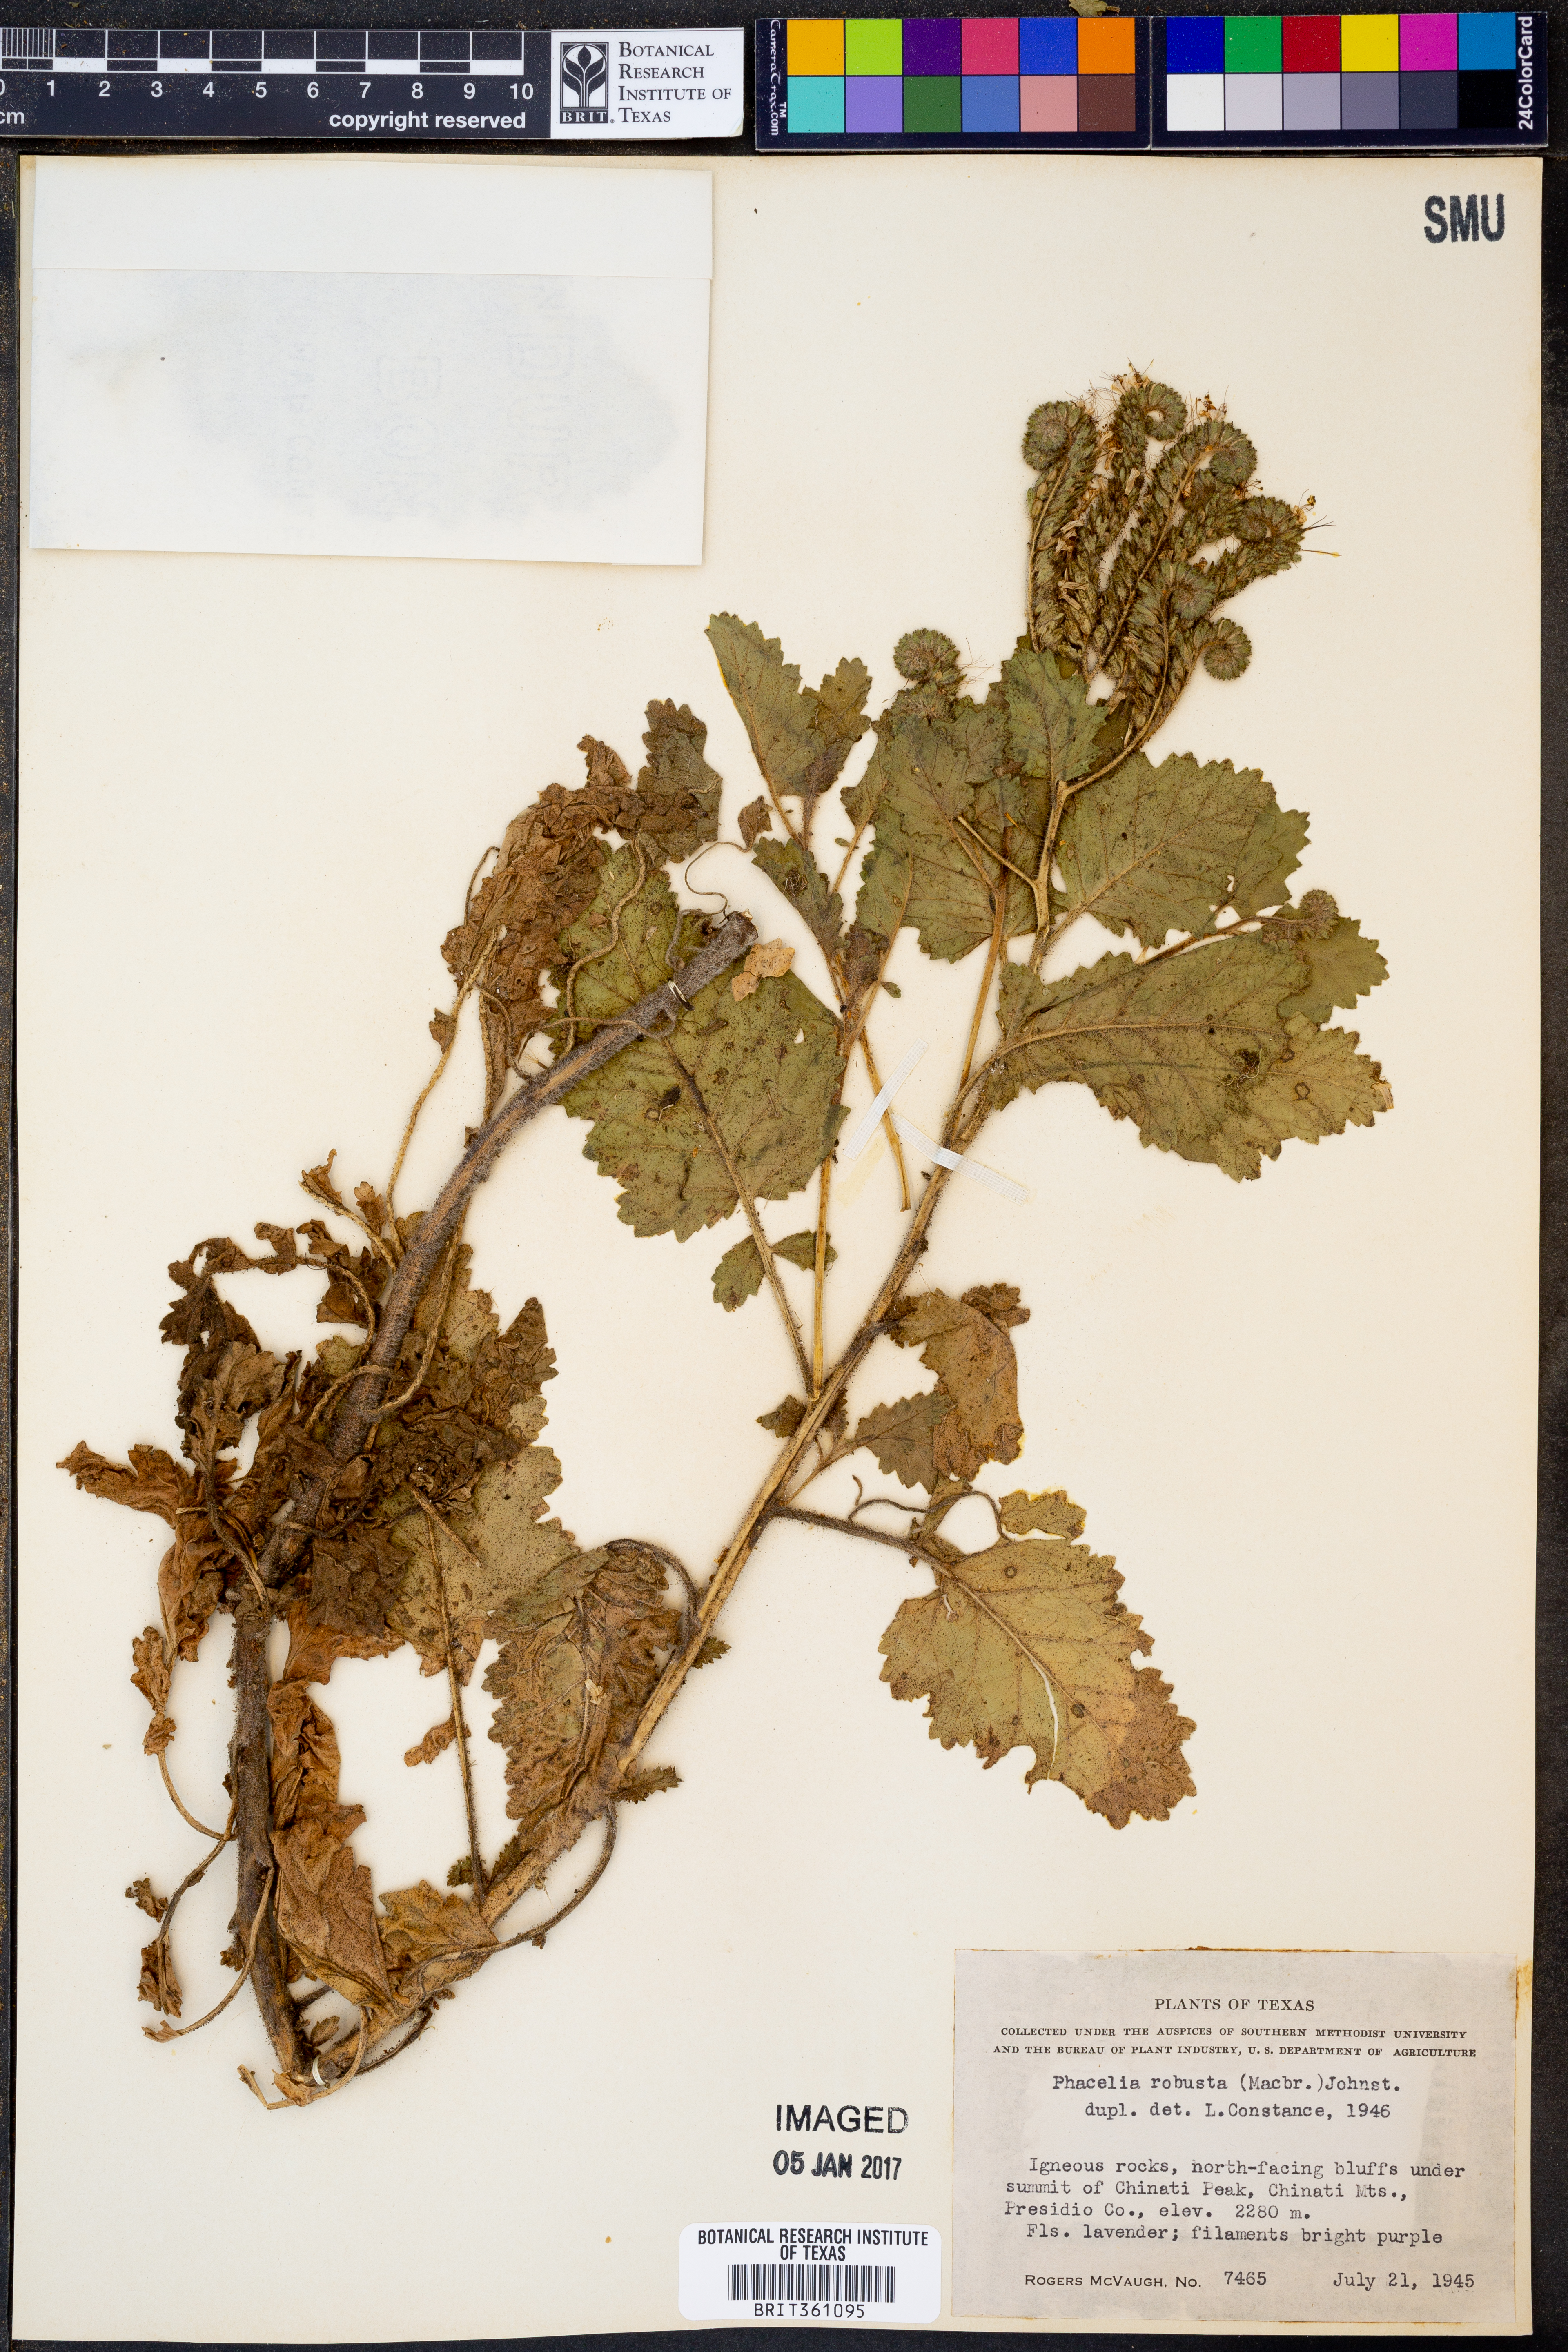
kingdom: Plantae
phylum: Tracheophyta
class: Magnoliopsida
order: Boraginales
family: Hydrophyllaceae
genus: Phacelia
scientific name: Phacelia robusta
